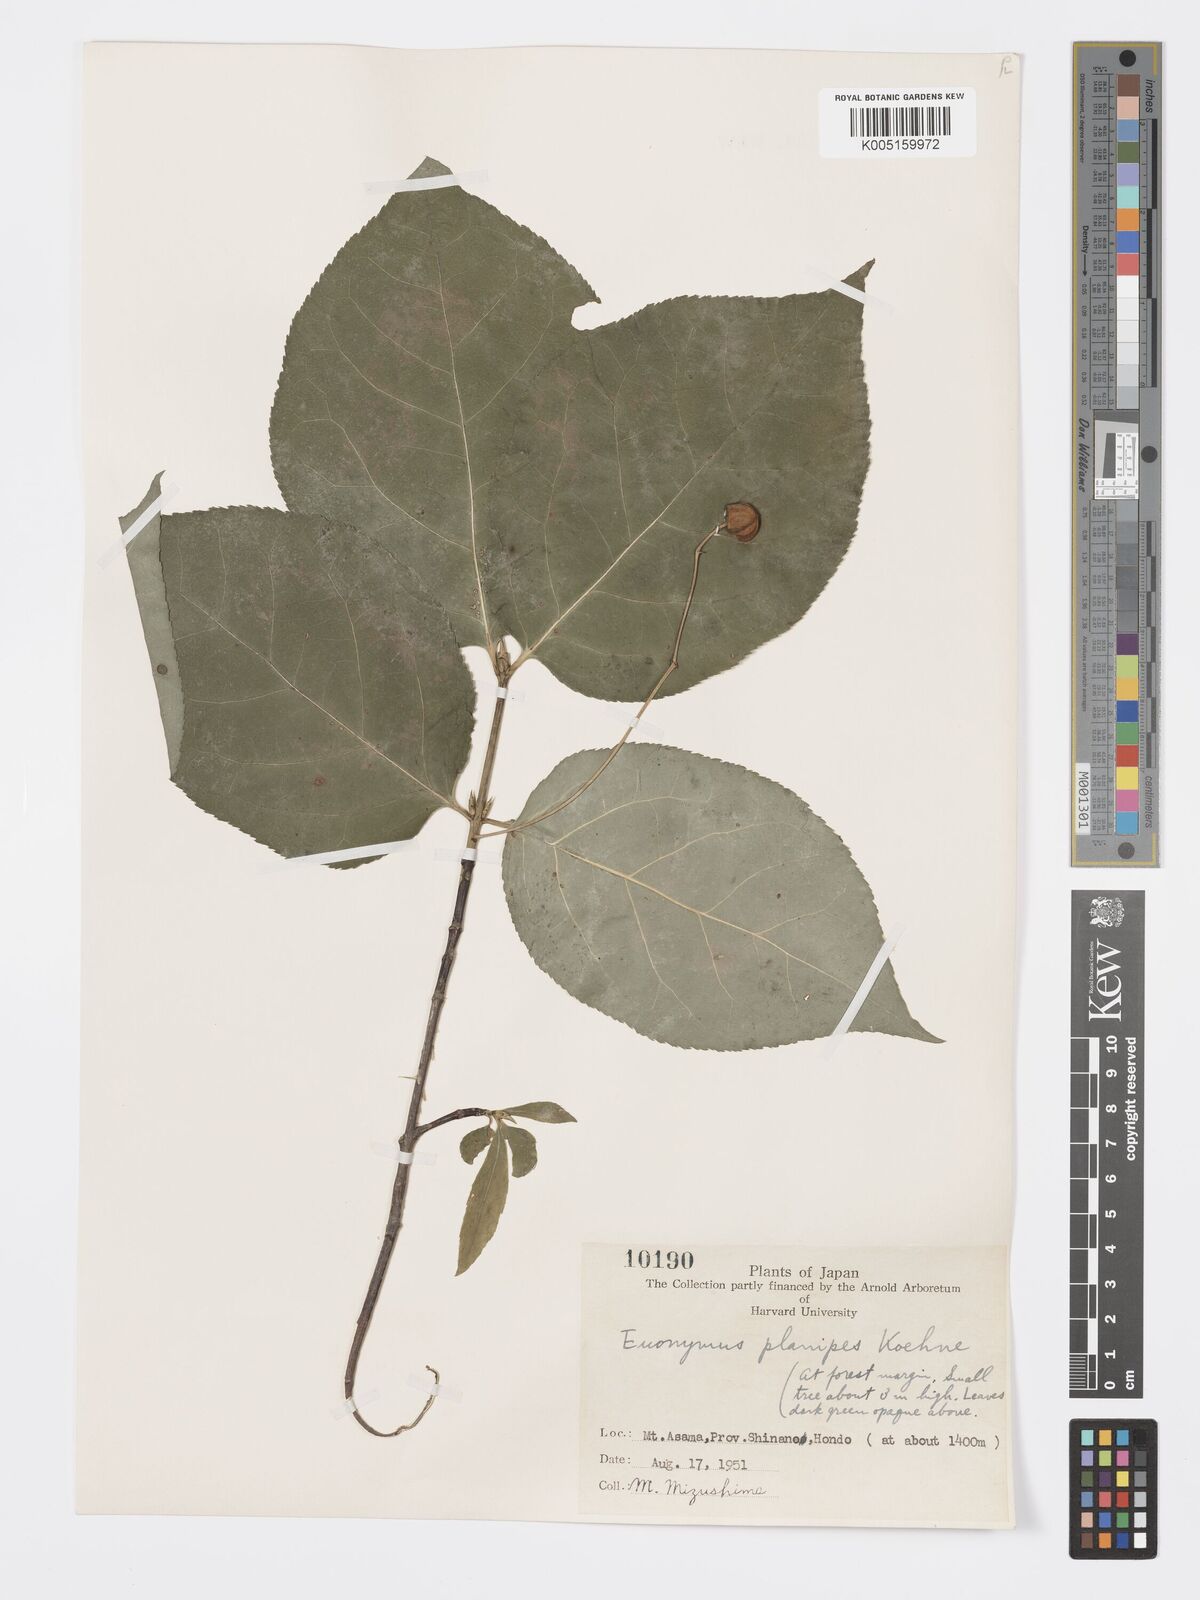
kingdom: Plantae
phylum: Tracheophyta
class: Magnoliopsida
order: Celastrales
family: Celastraceae
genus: Euonymus
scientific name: Euonymus sachalinensis
